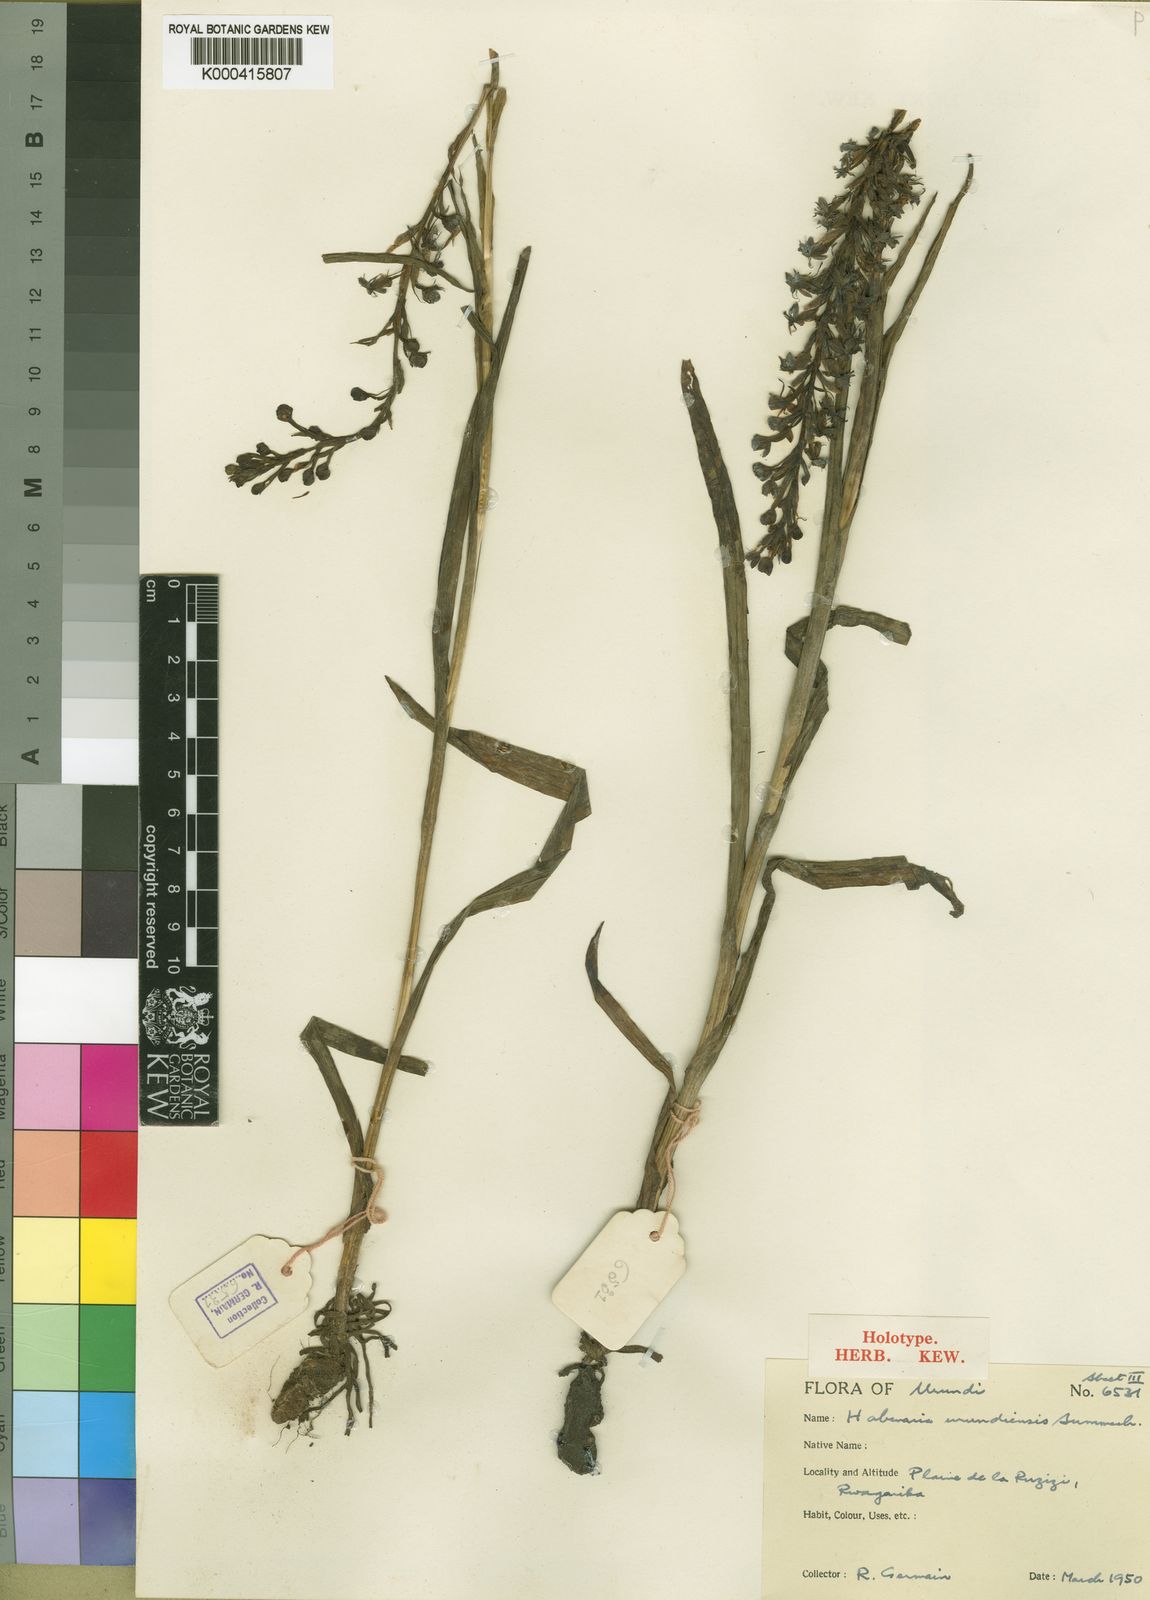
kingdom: Plantae
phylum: Tracheophyta
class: Liliopsida
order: Asparagales
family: Orchidaceae
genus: Habenaria
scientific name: Habenaria huillensis
